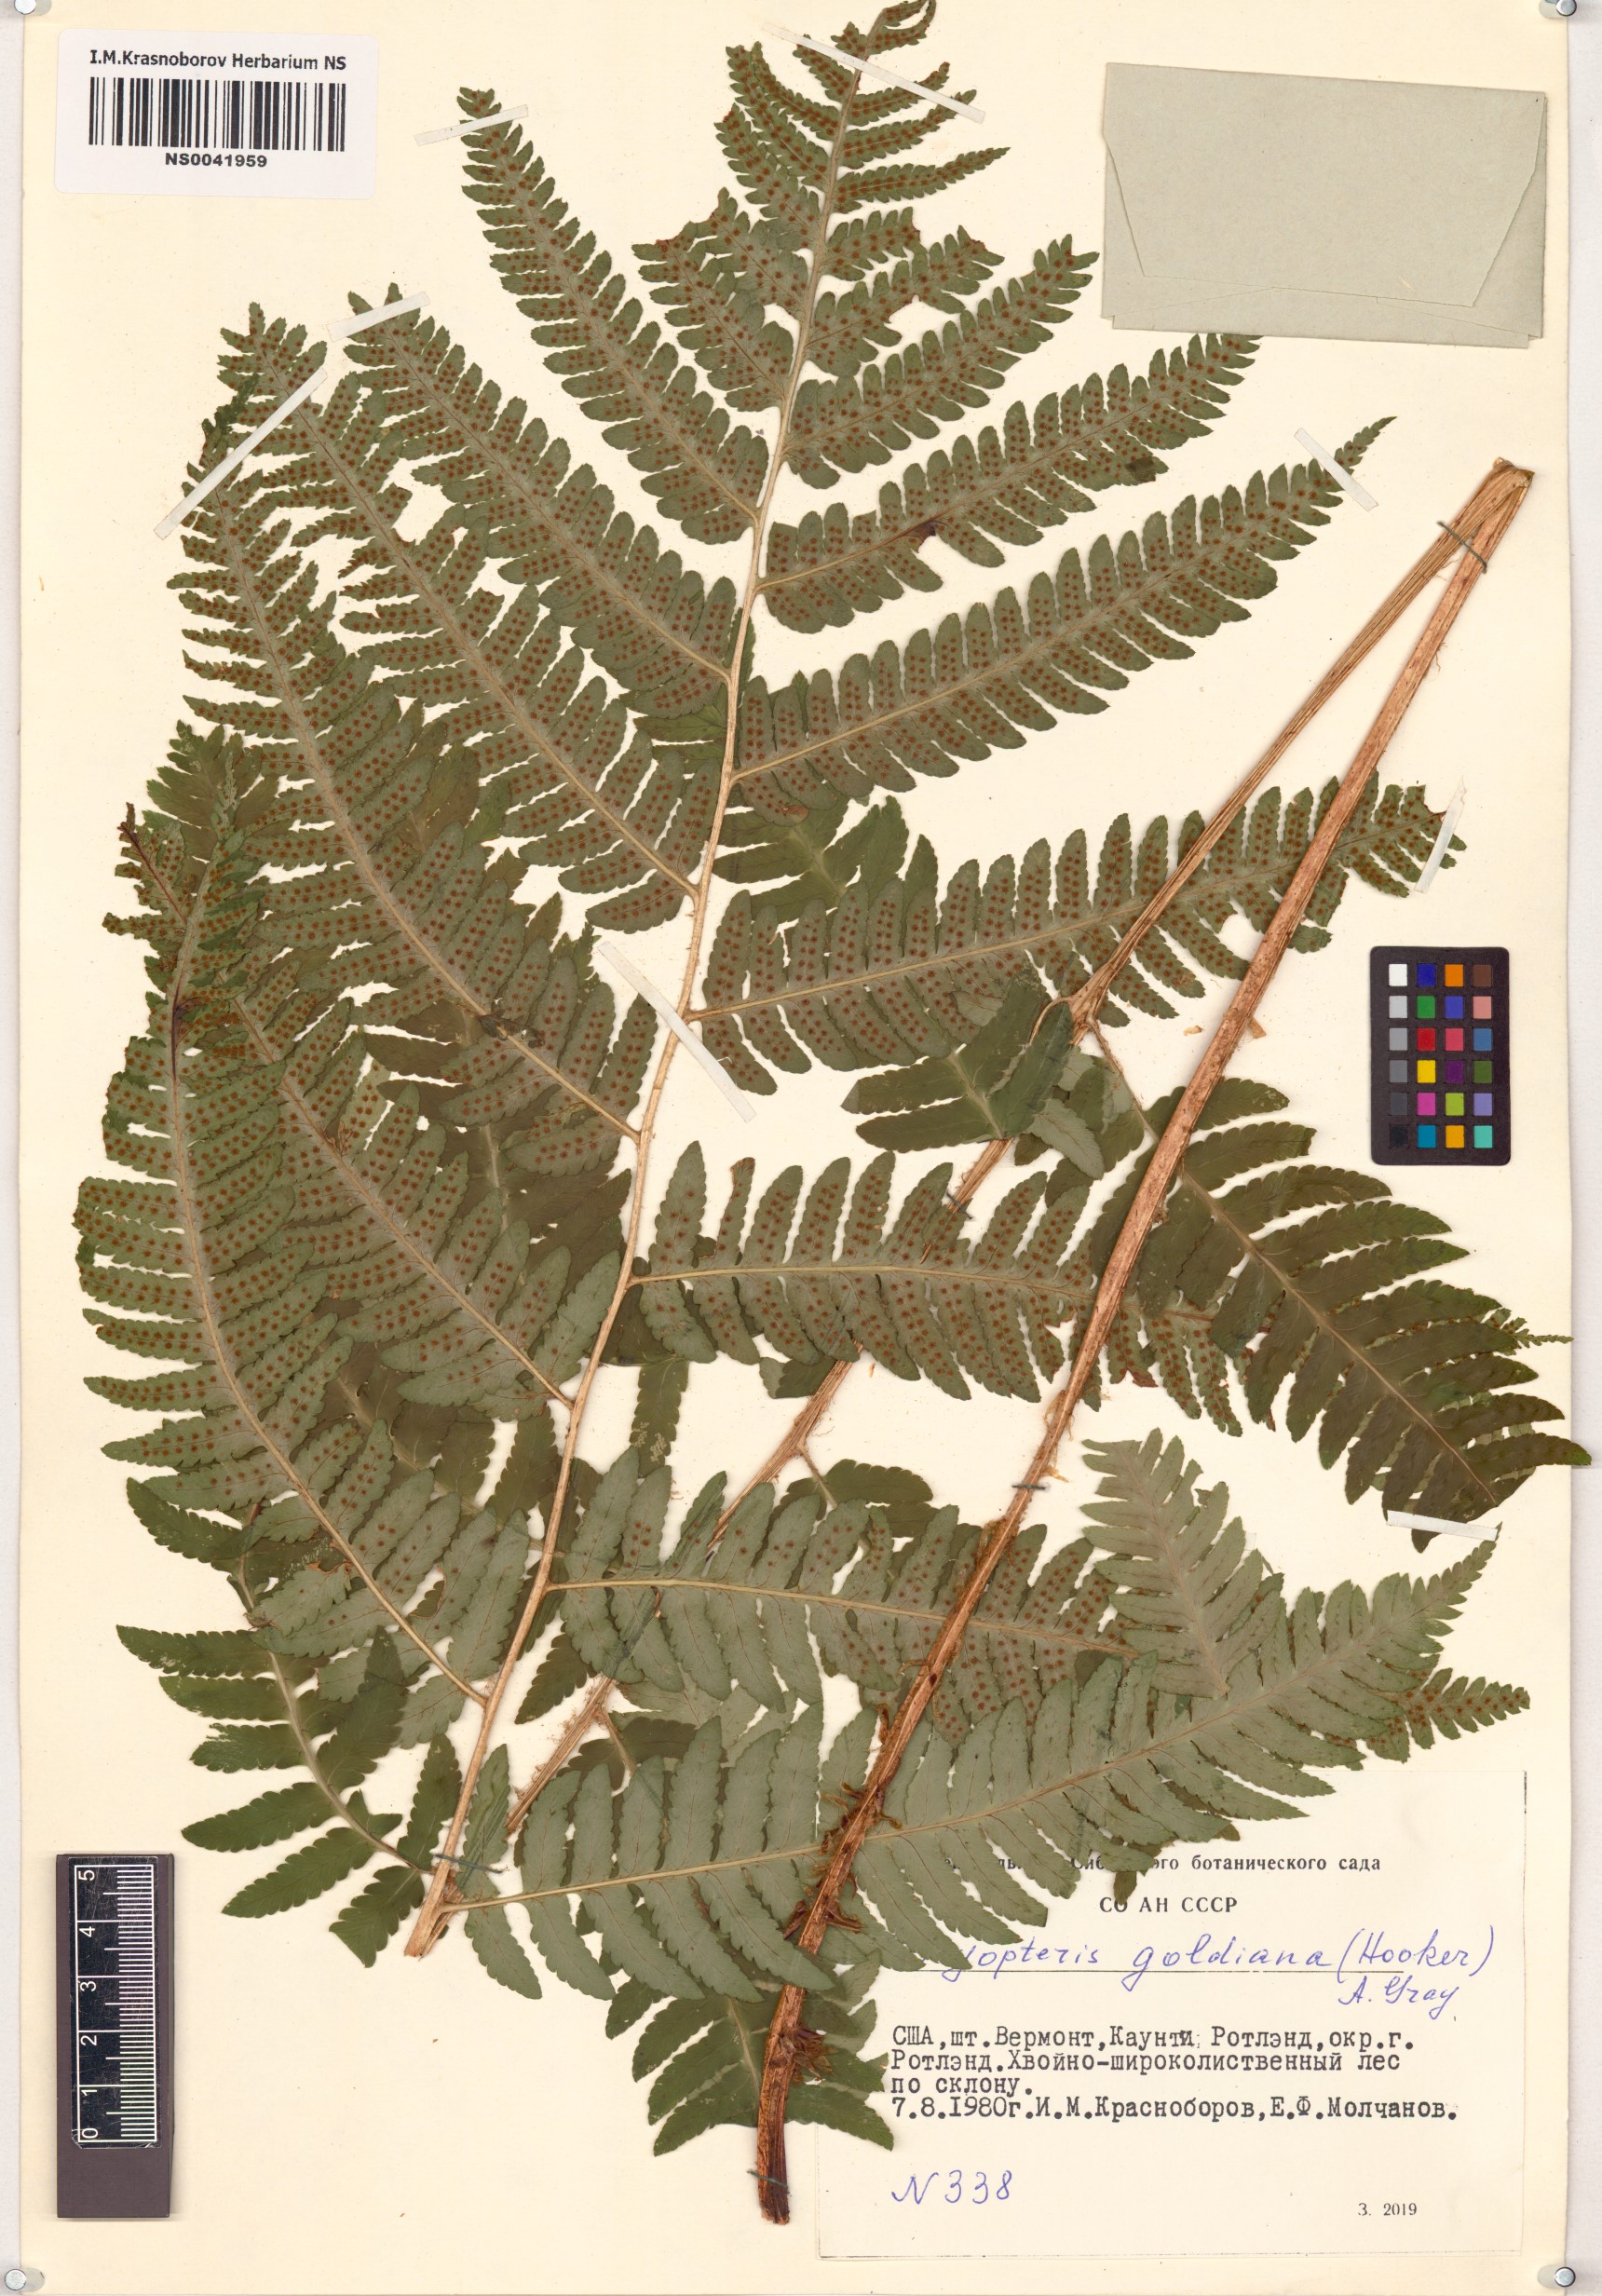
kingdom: Plantae
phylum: Tracheophyta
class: Polypodiopsida
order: Polypodiales
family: Dryopteridaceae
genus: Dryopteris
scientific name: Dryopteris goldieana
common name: Goldie's fern
